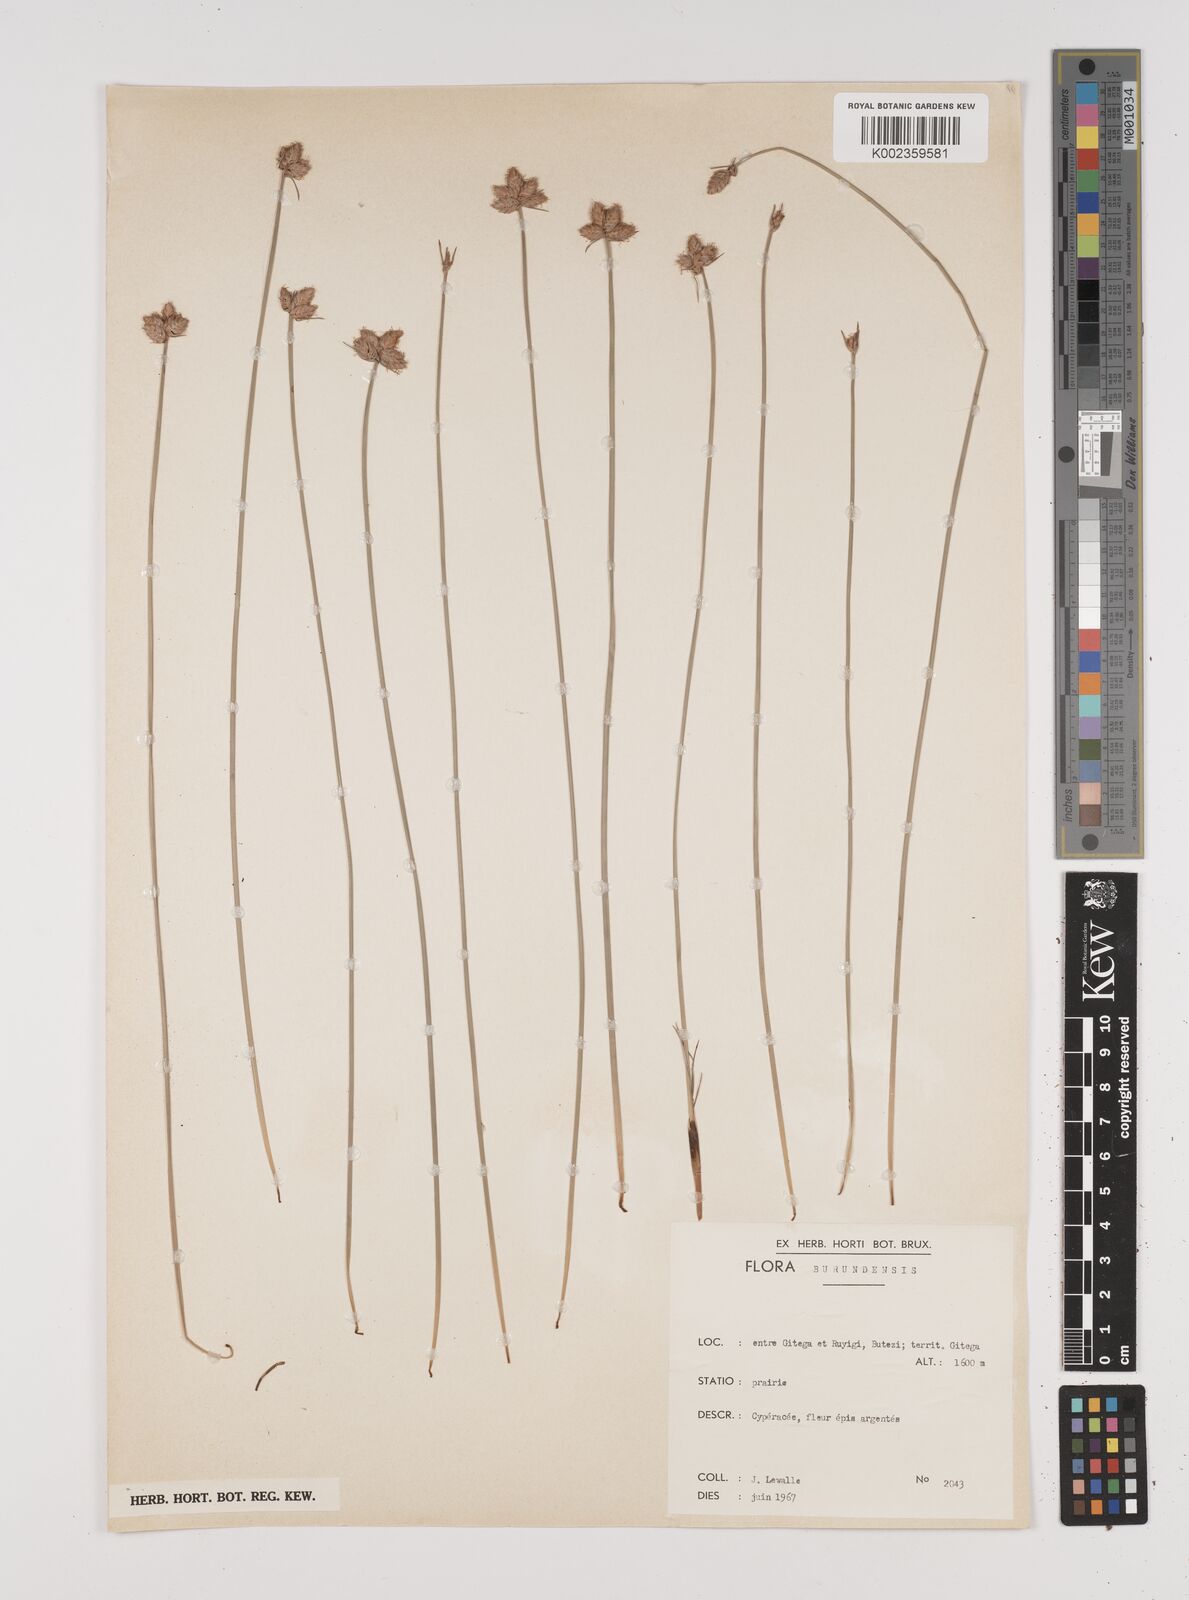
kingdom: Plantae
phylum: Tracheophyta
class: Liliopsida
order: Poales
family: Cyperaceae
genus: Cyperus
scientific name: Cyperus nduru
